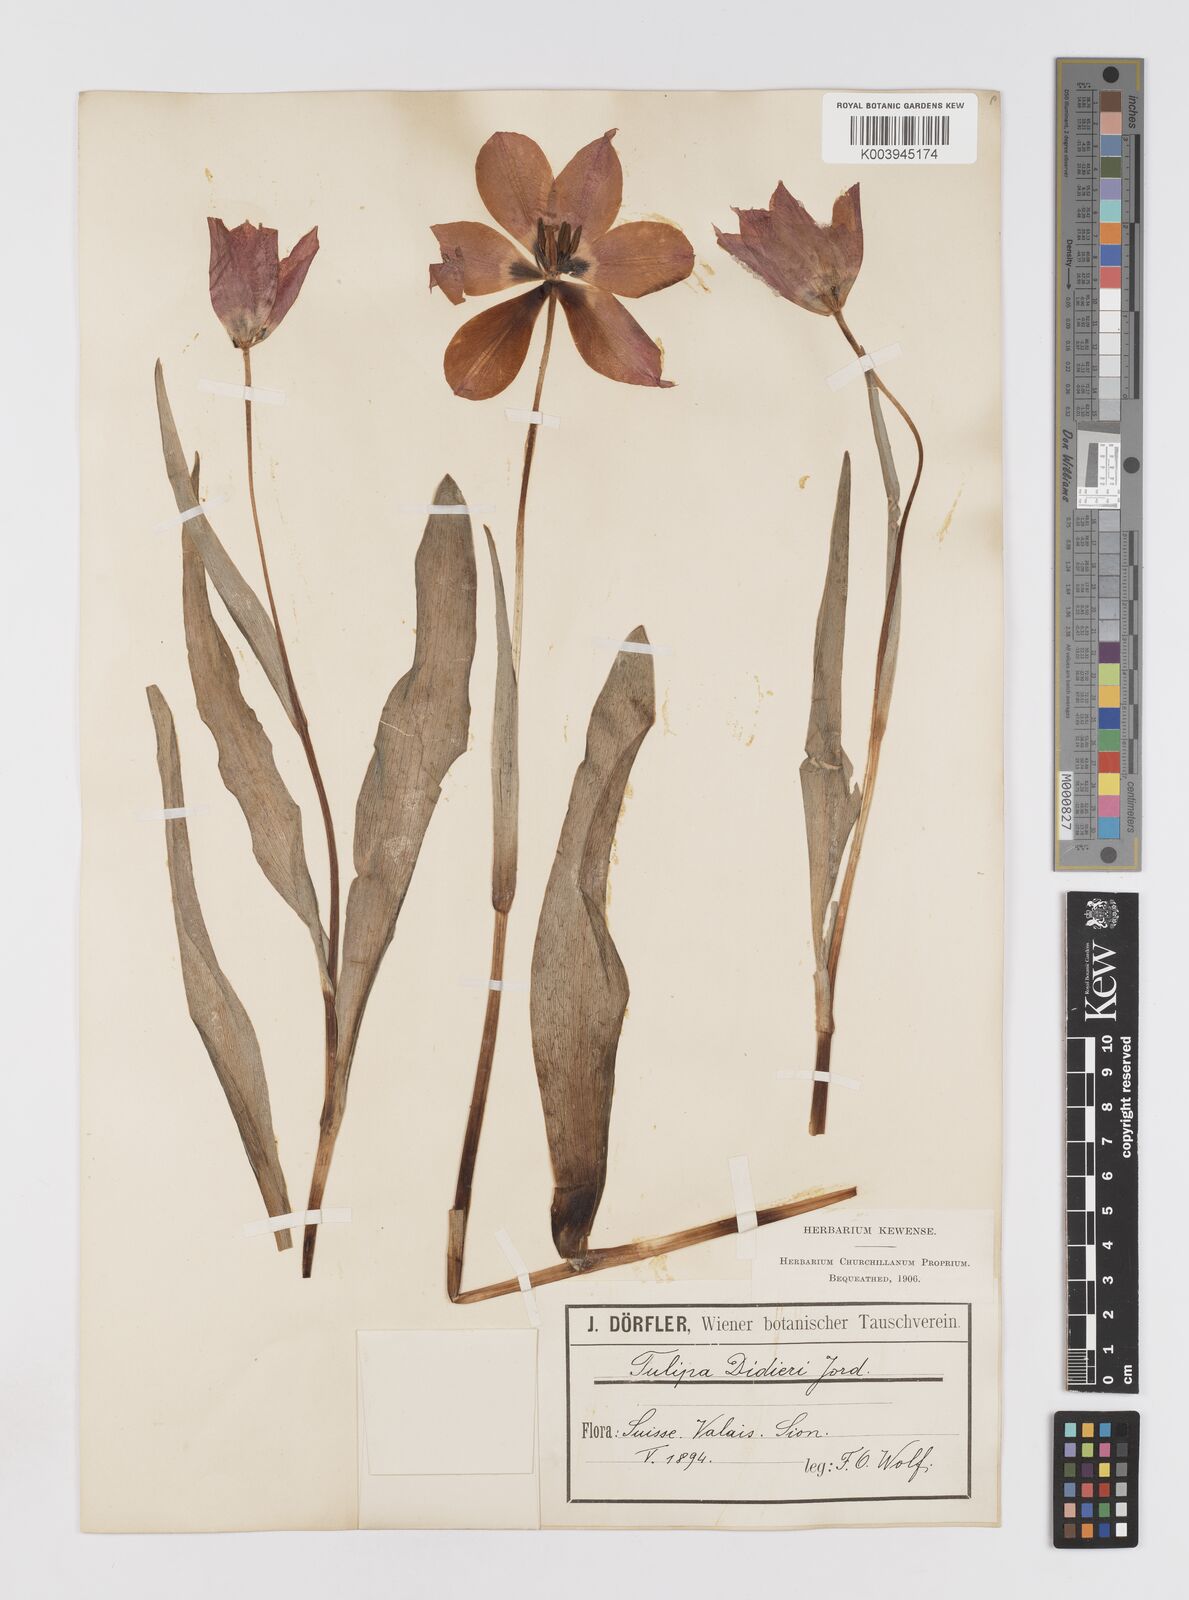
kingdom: Plantae
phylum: Tracheophyta
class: Liliopsida
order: Liliales
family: Liliaceae
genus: Tulipa
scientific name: Tulipa gesneriana
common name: Garden tulip
